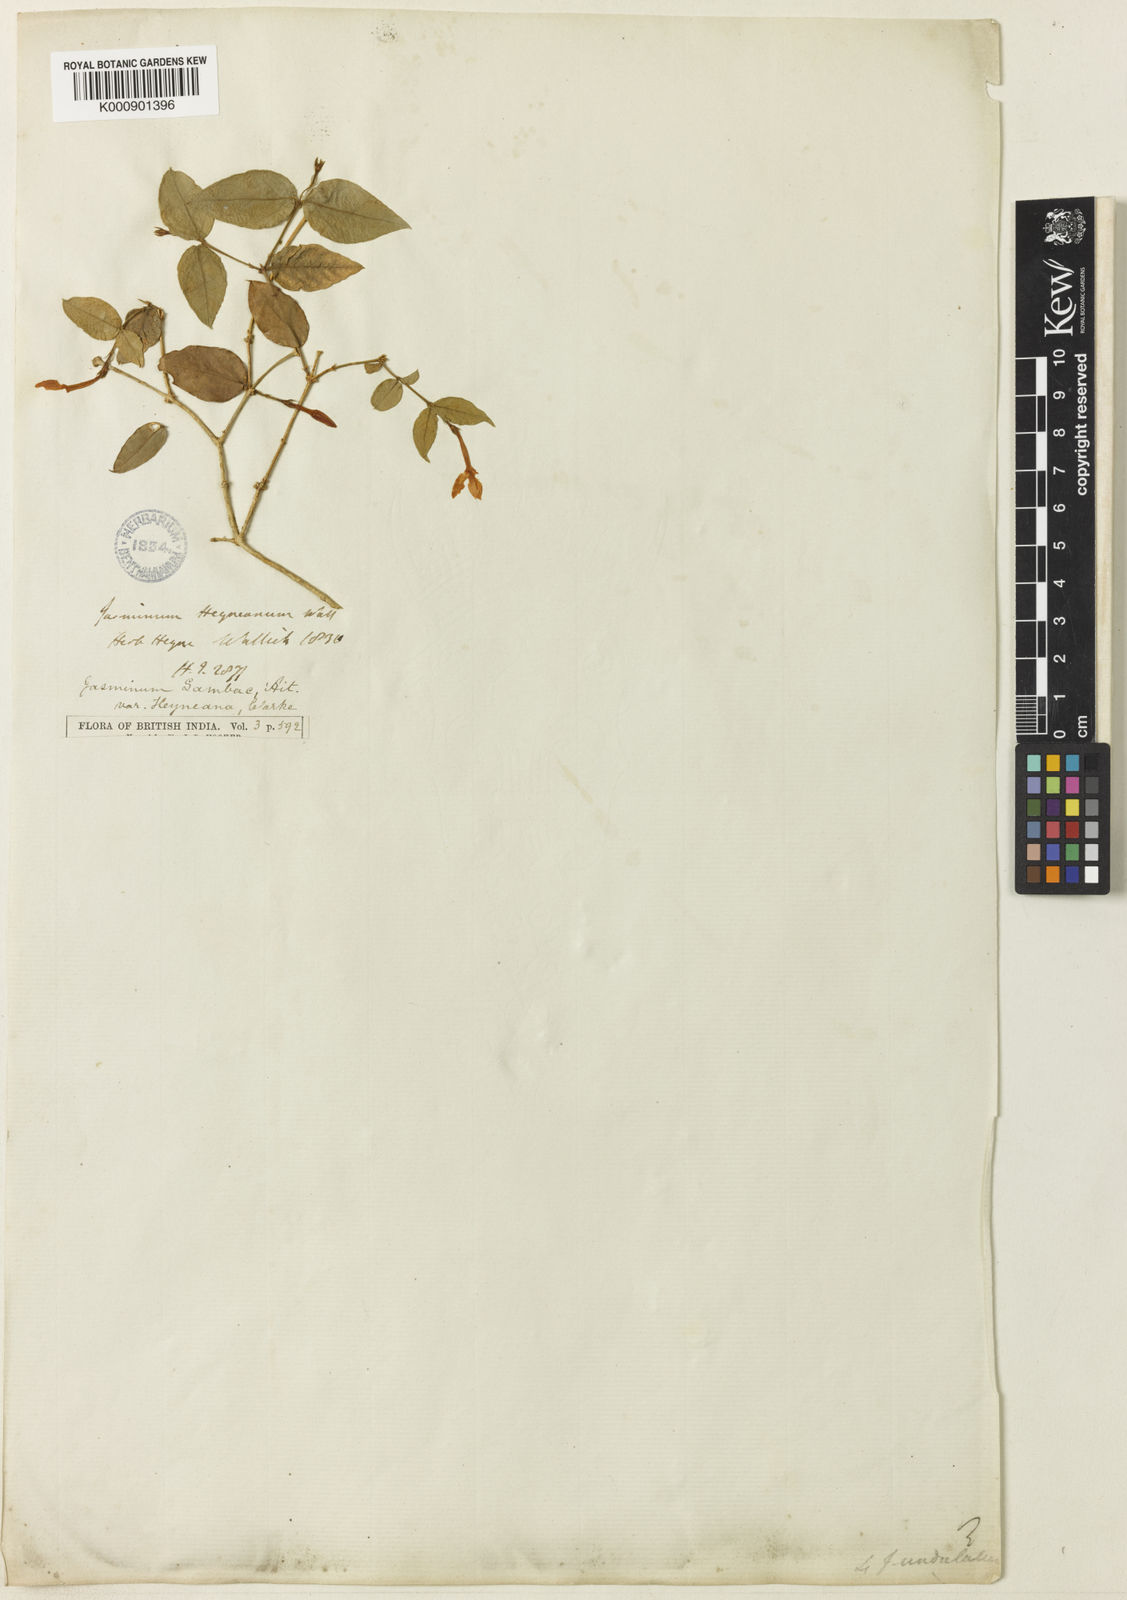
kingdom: Plantae
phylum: Tracheophyta
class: Magnoliopsida
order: Lamiales
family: Oleaceae
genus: Jasminum
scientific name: Jasminum sambac
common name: Arabian jasmine
